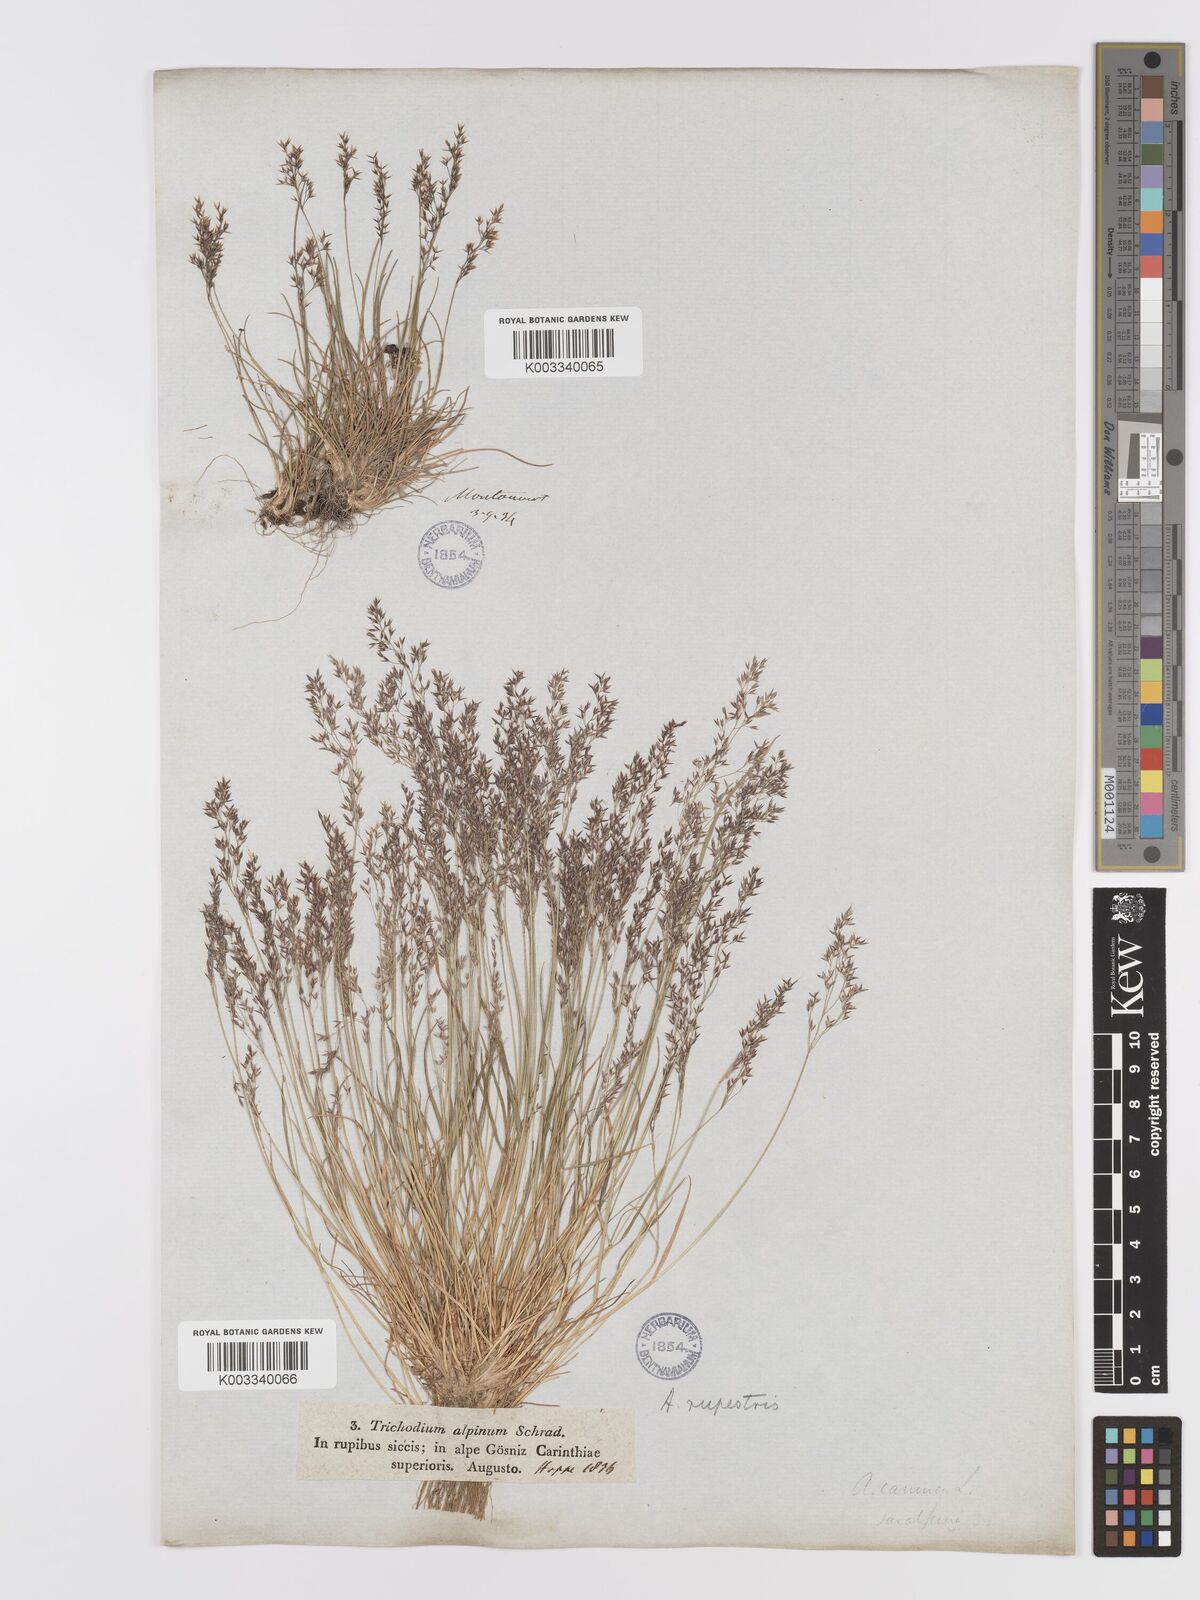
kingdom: Plantae
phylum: Tracheophyta
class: Liliopsida
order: Poales
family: Poaceae
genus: Agrostis
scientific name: Agrostis rupestris
